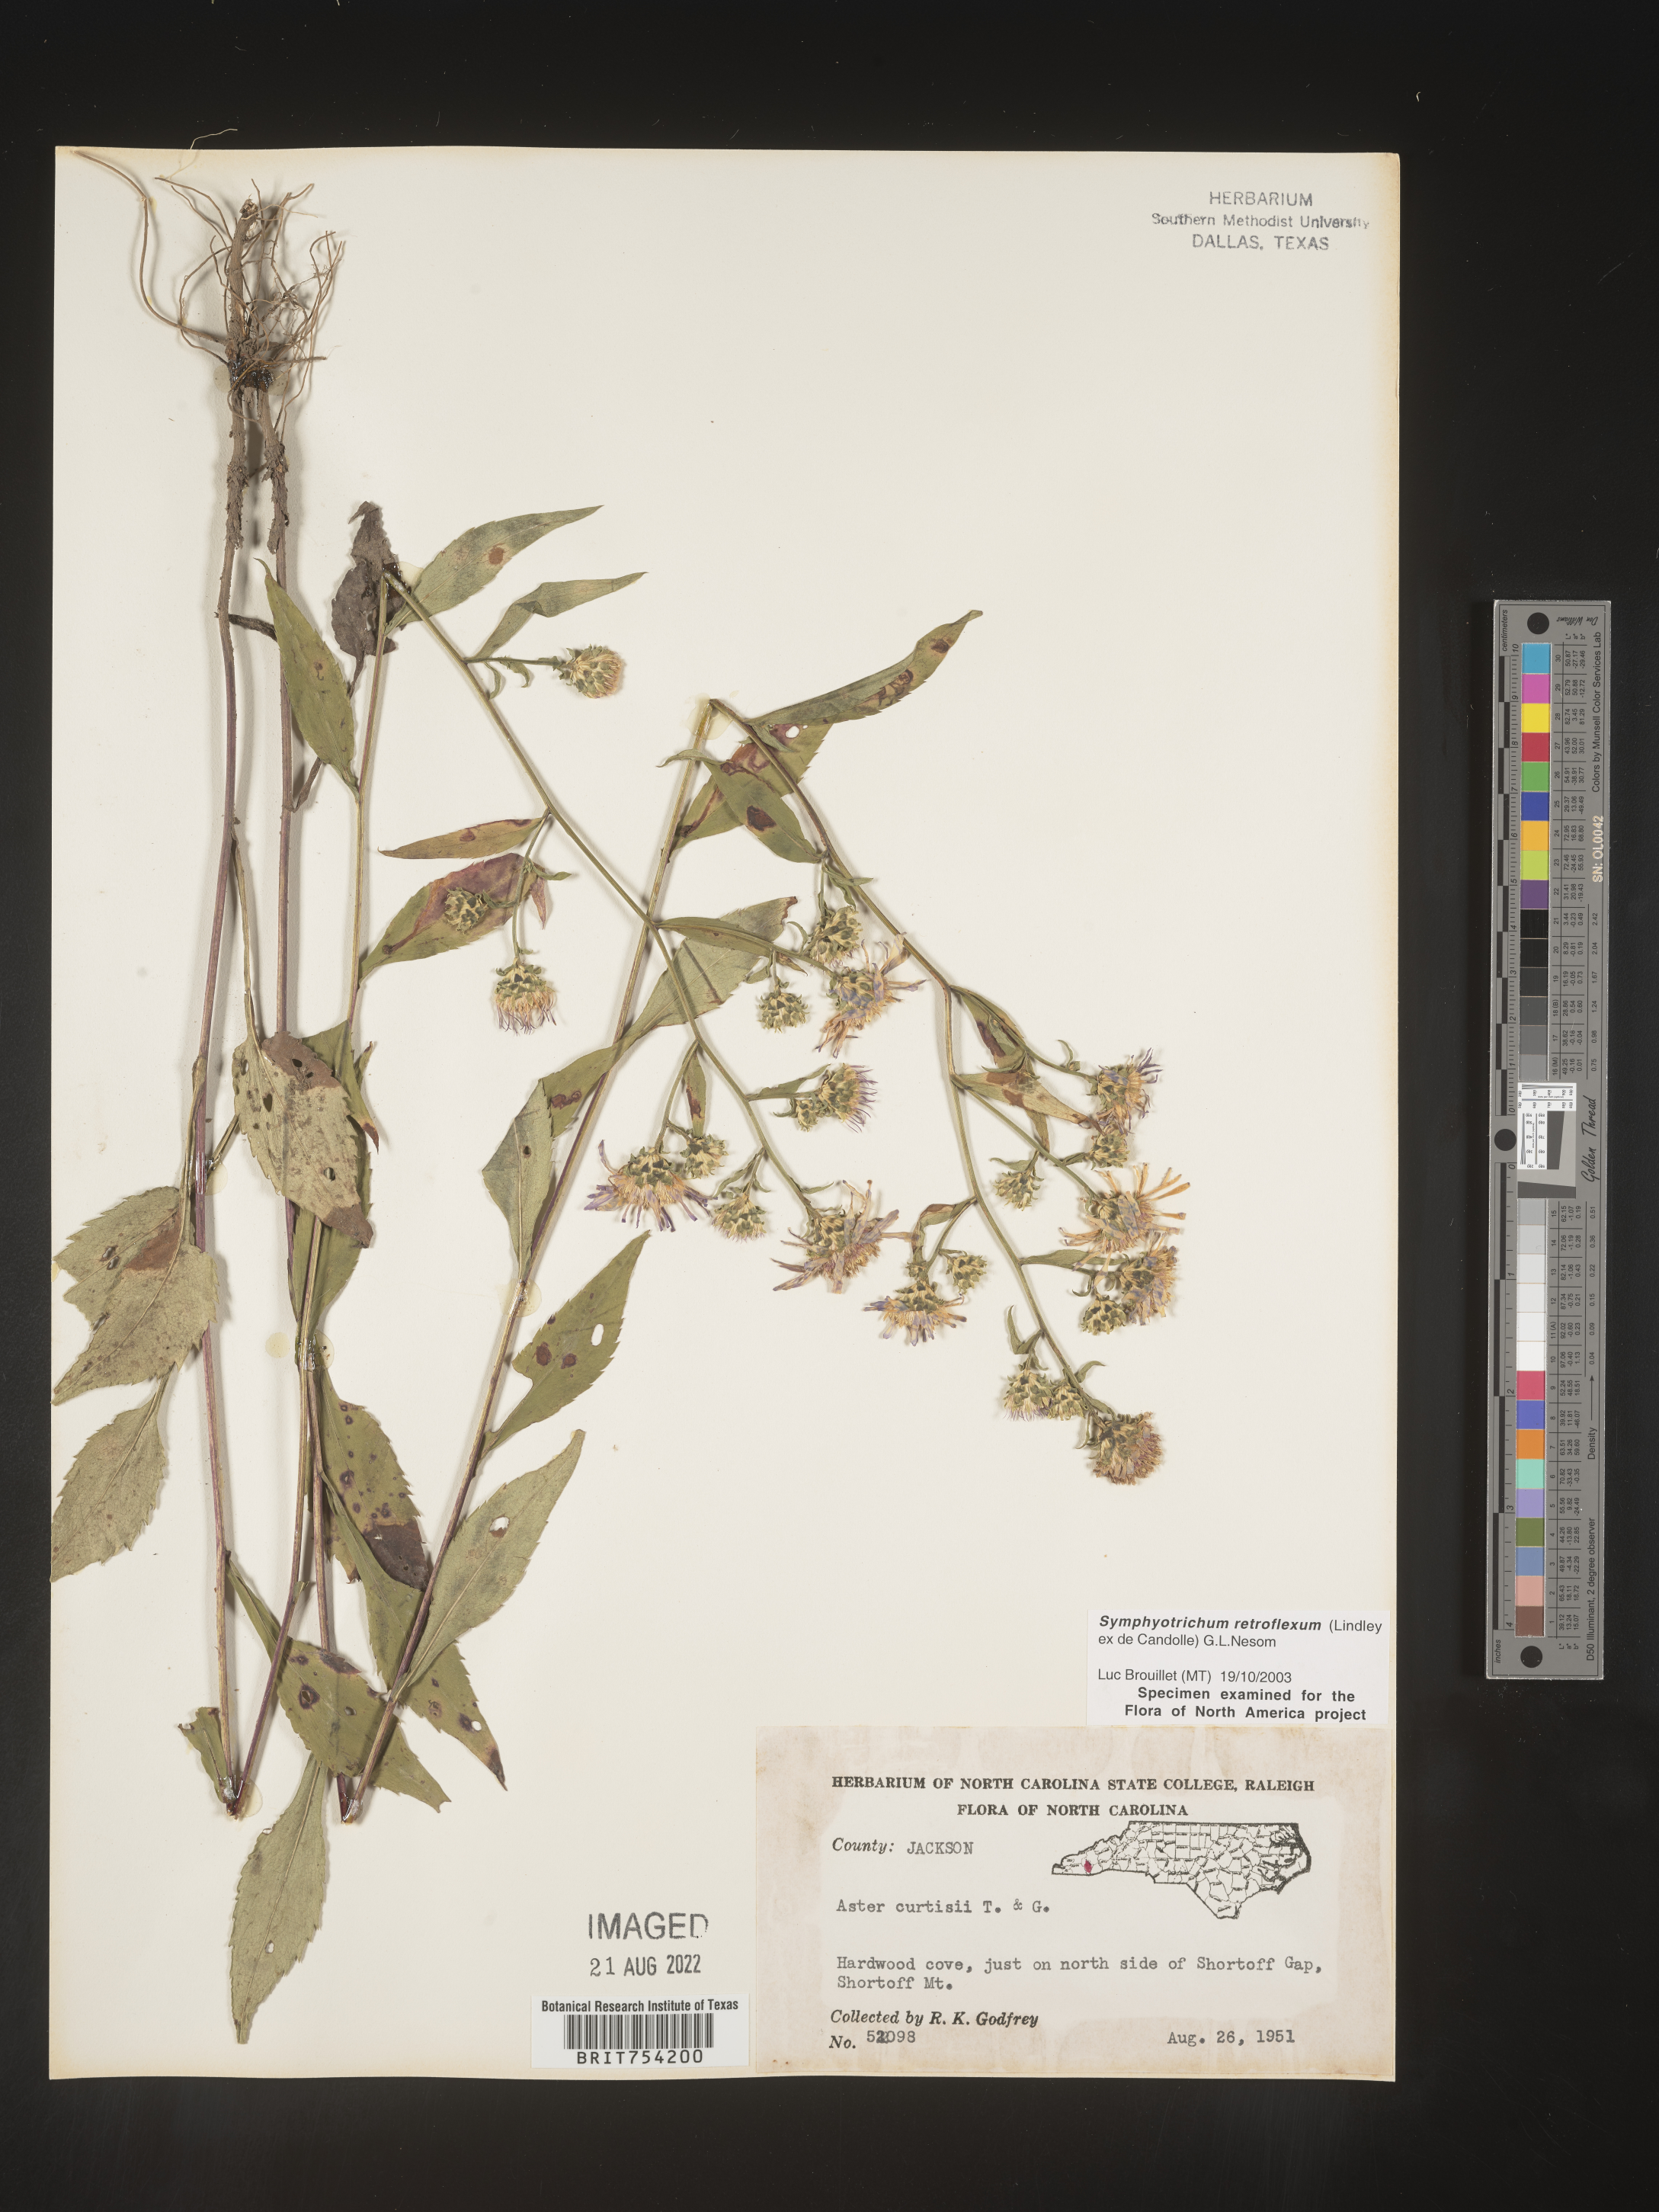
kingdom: Plantae
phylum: Tracheophyta
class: Magnoliopsida
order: Asterales
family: Asteraceae
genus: Symphyotrichum
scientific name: Symphyotrichum retroflexum
